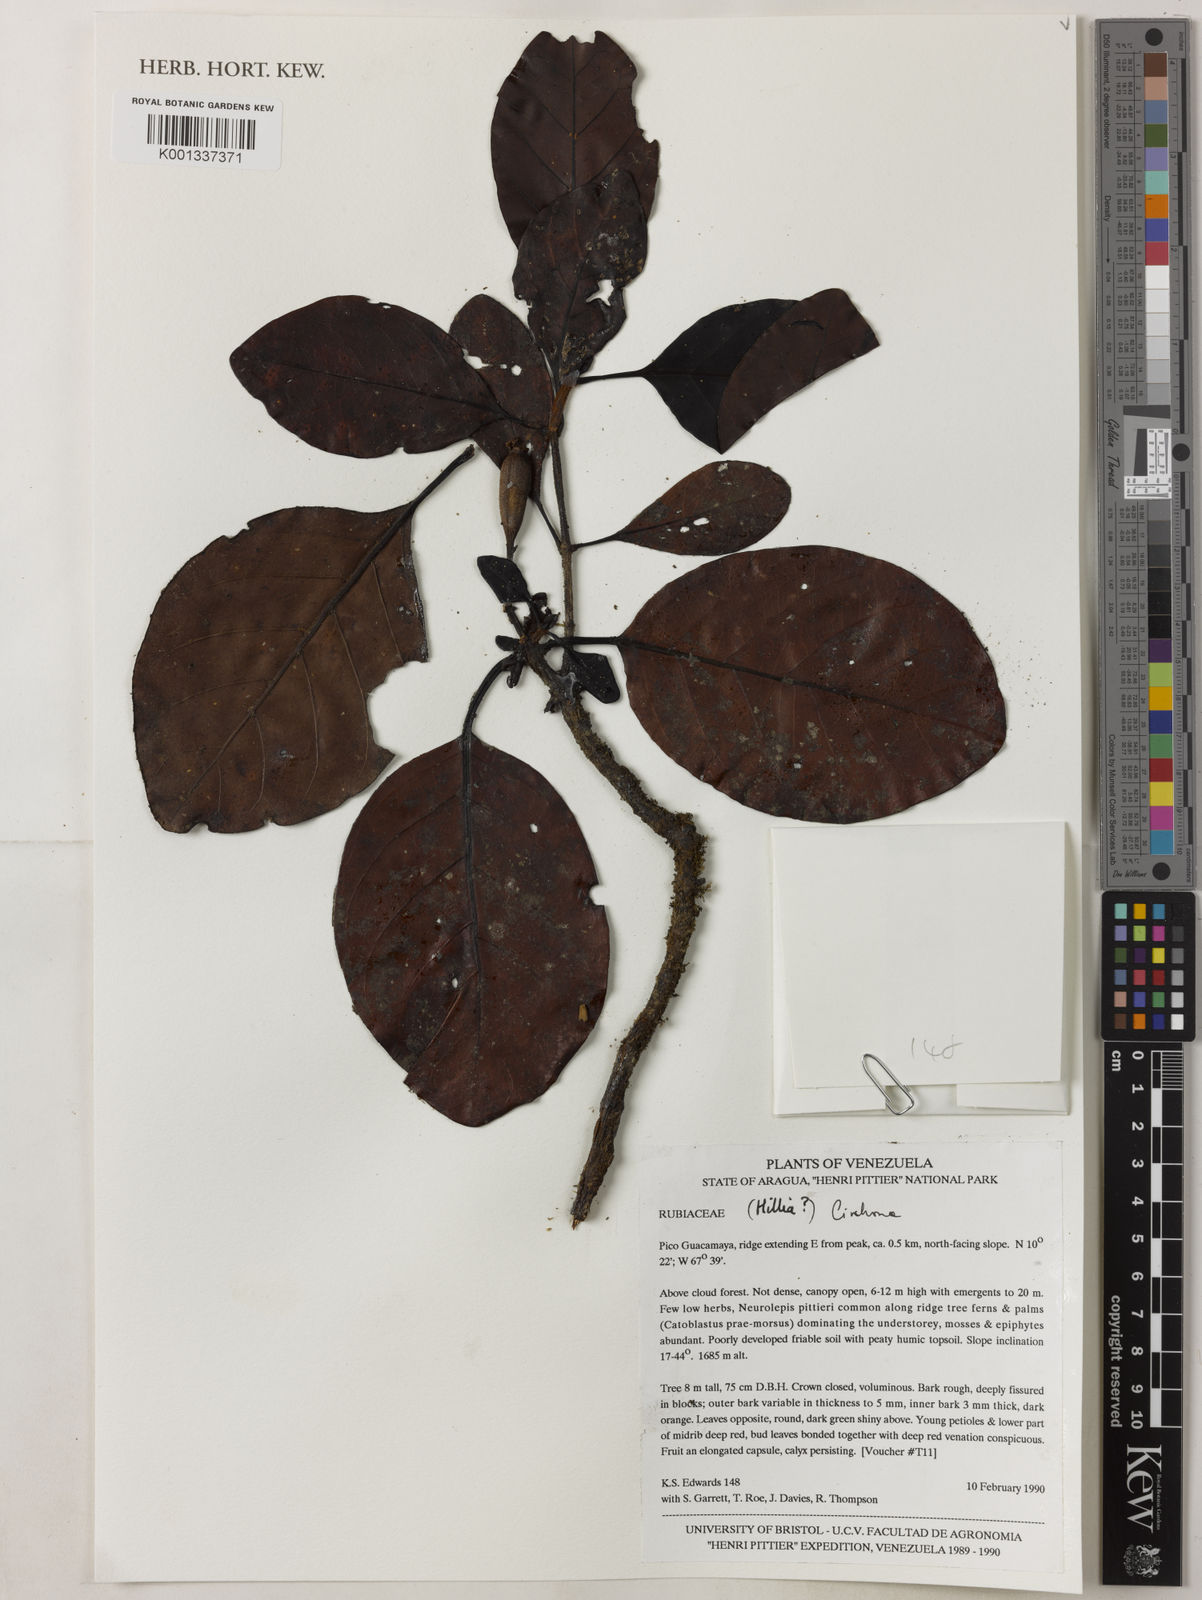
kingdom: Plantae
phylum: Tracheophyta
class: Magnoliopsida
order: Gentianales
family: Rubiaceae
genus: Cinchona
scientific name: Cinchona
